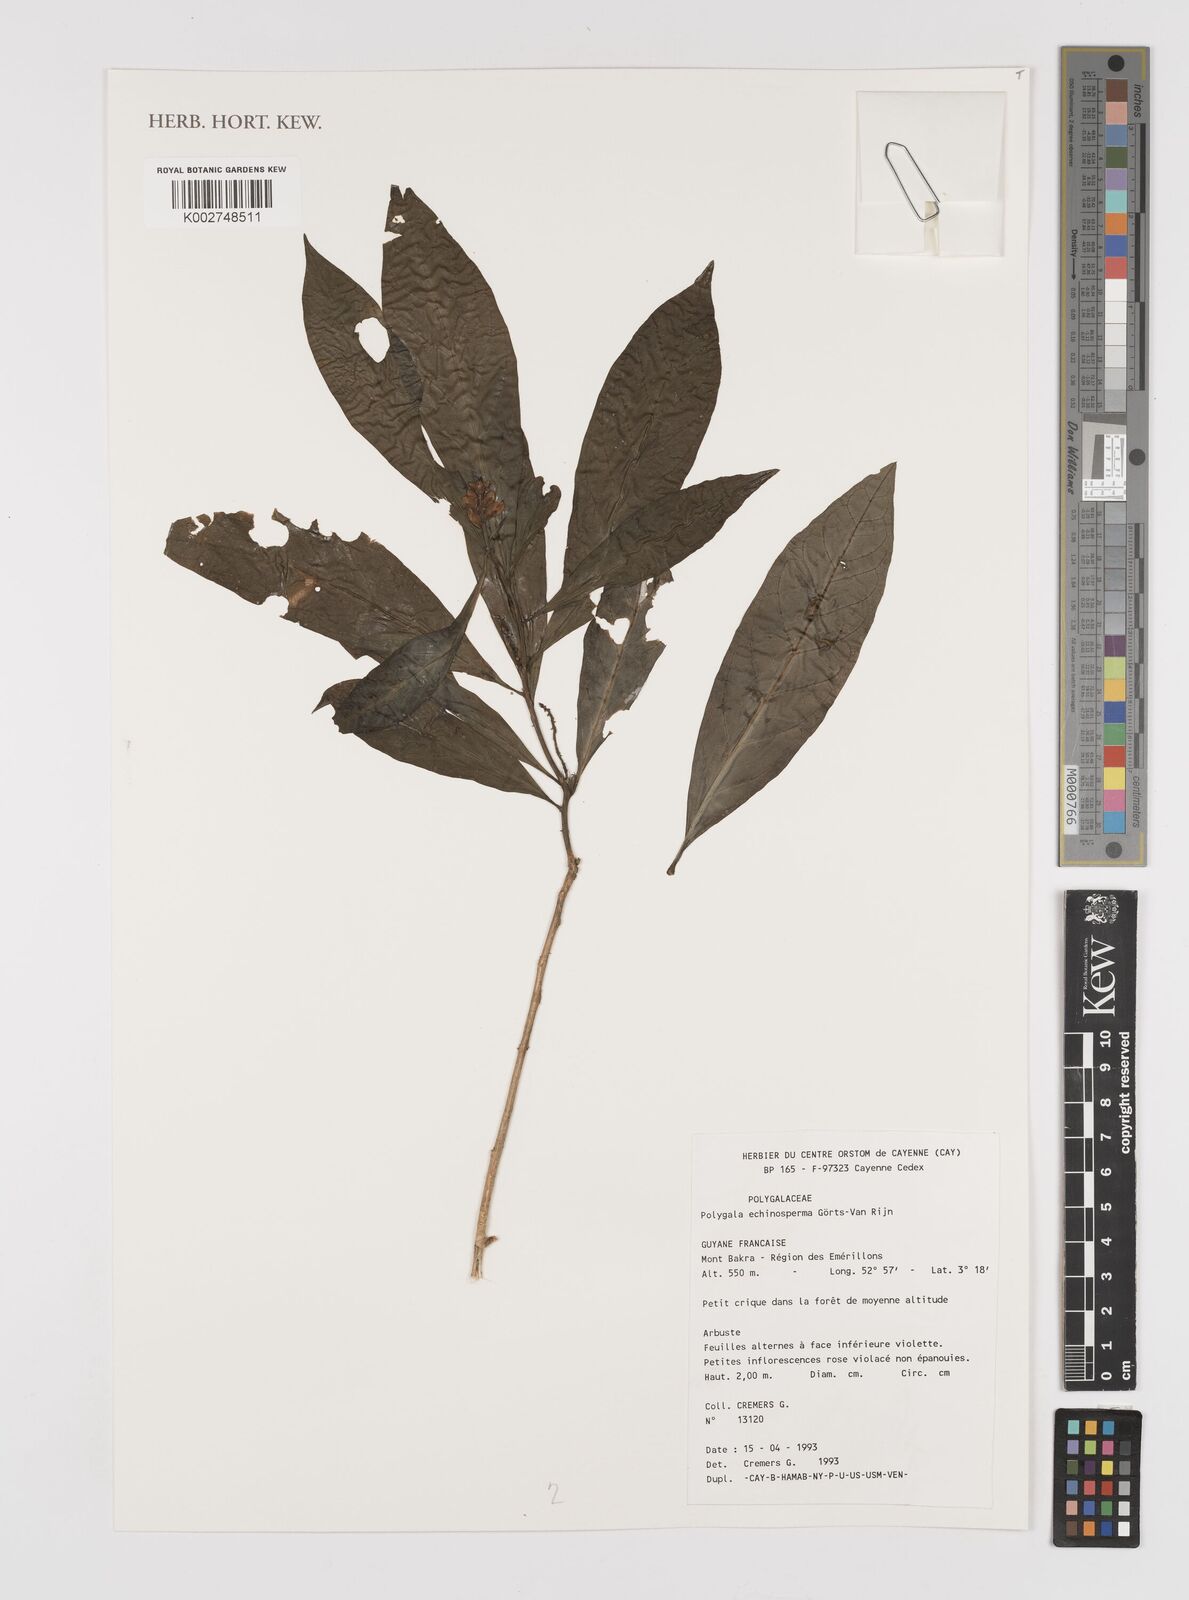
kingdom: Plantae
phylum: Tracheophyta
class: Magnoliopsida
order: Fabales
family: Polygalaceae
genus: Caamembeca
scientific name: Caamembeca
